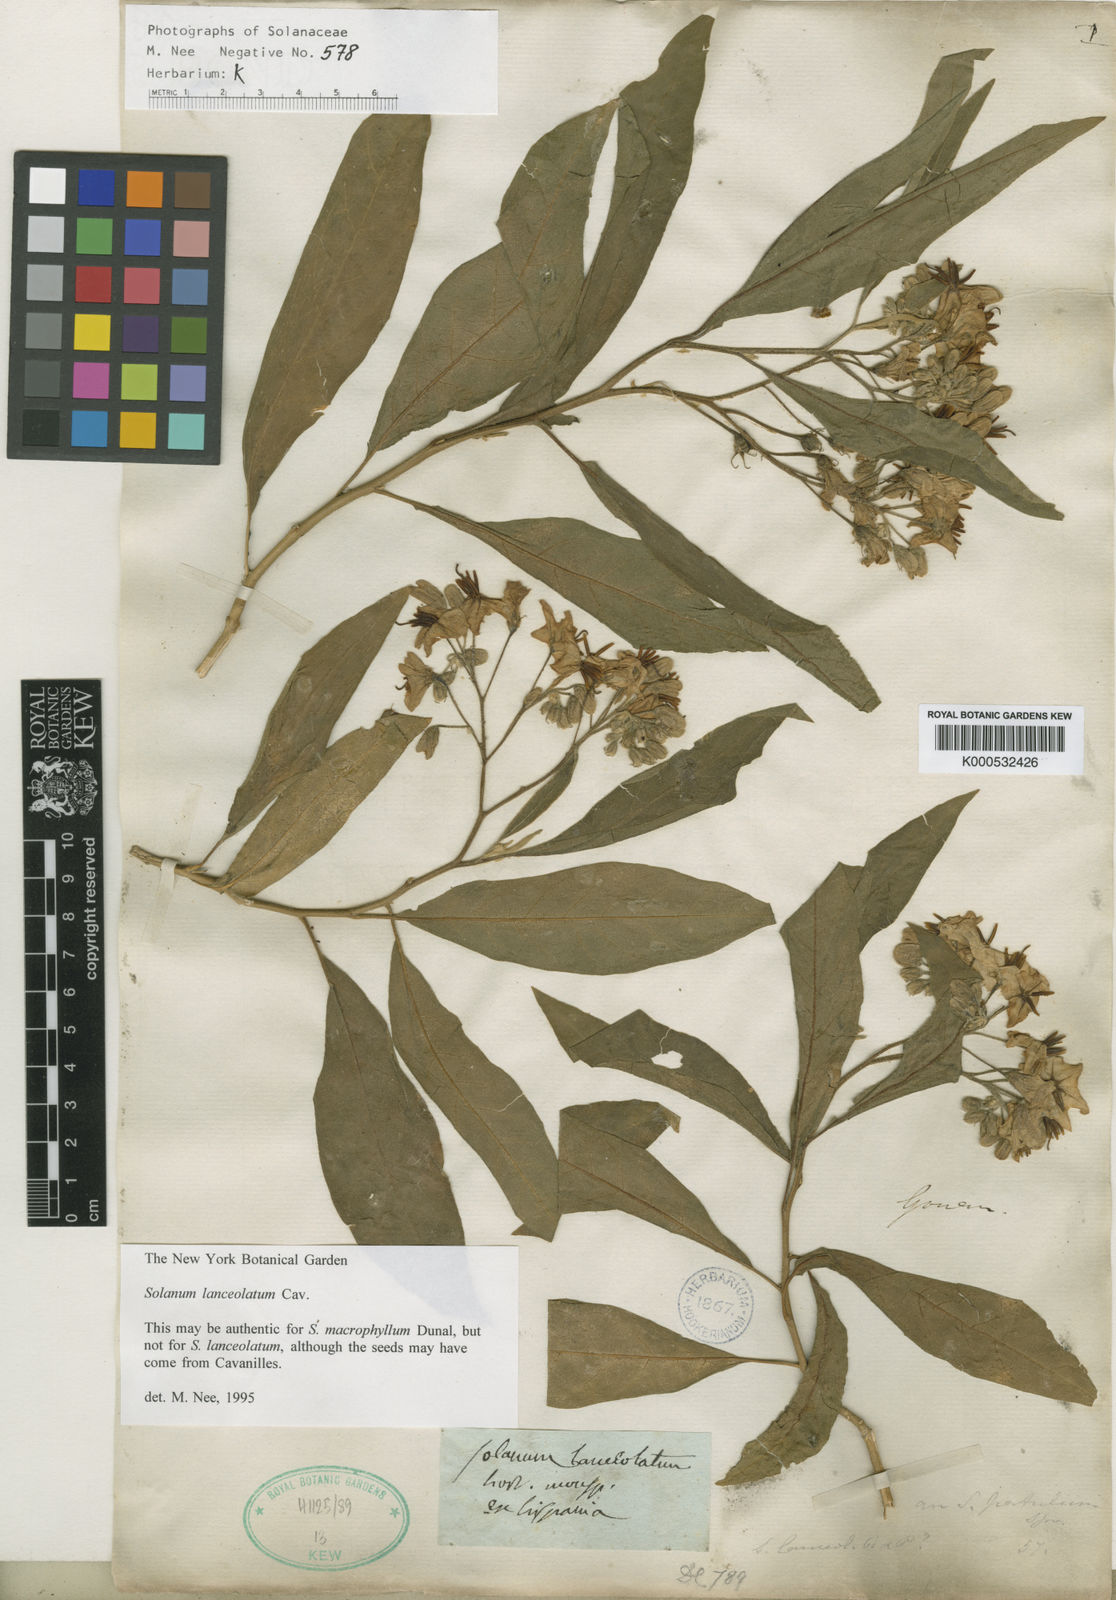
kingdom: Plantae
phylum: Tracheophyta
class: Magnoliopsida
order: Solanales
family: Solanaceae
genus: Solanum
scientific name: Solanum lanceolatum
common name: Orangeberry nightshade
